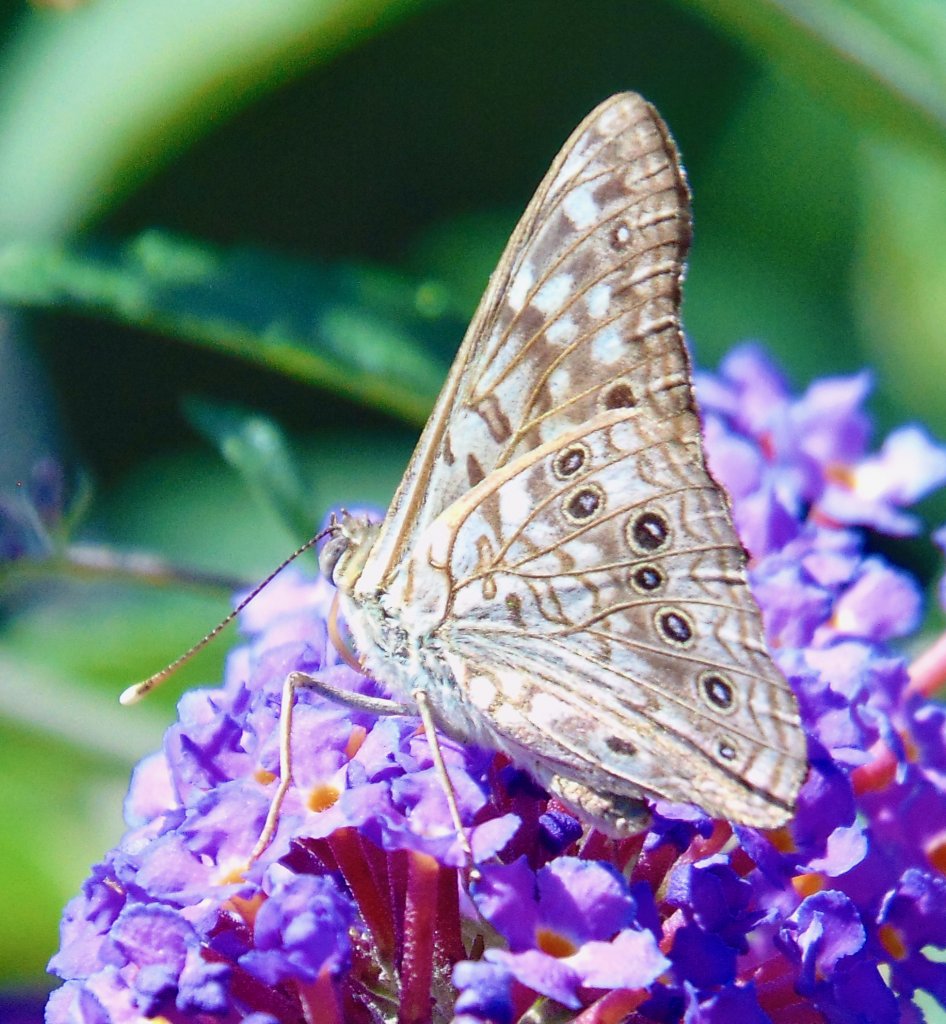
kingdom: Animalia
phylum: Arthropoda
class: Insecta
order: Lepidoptera
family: Nymphalidae
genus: Asterocampa
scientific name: Asterocampa celtis
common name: Hackberry Emperor
